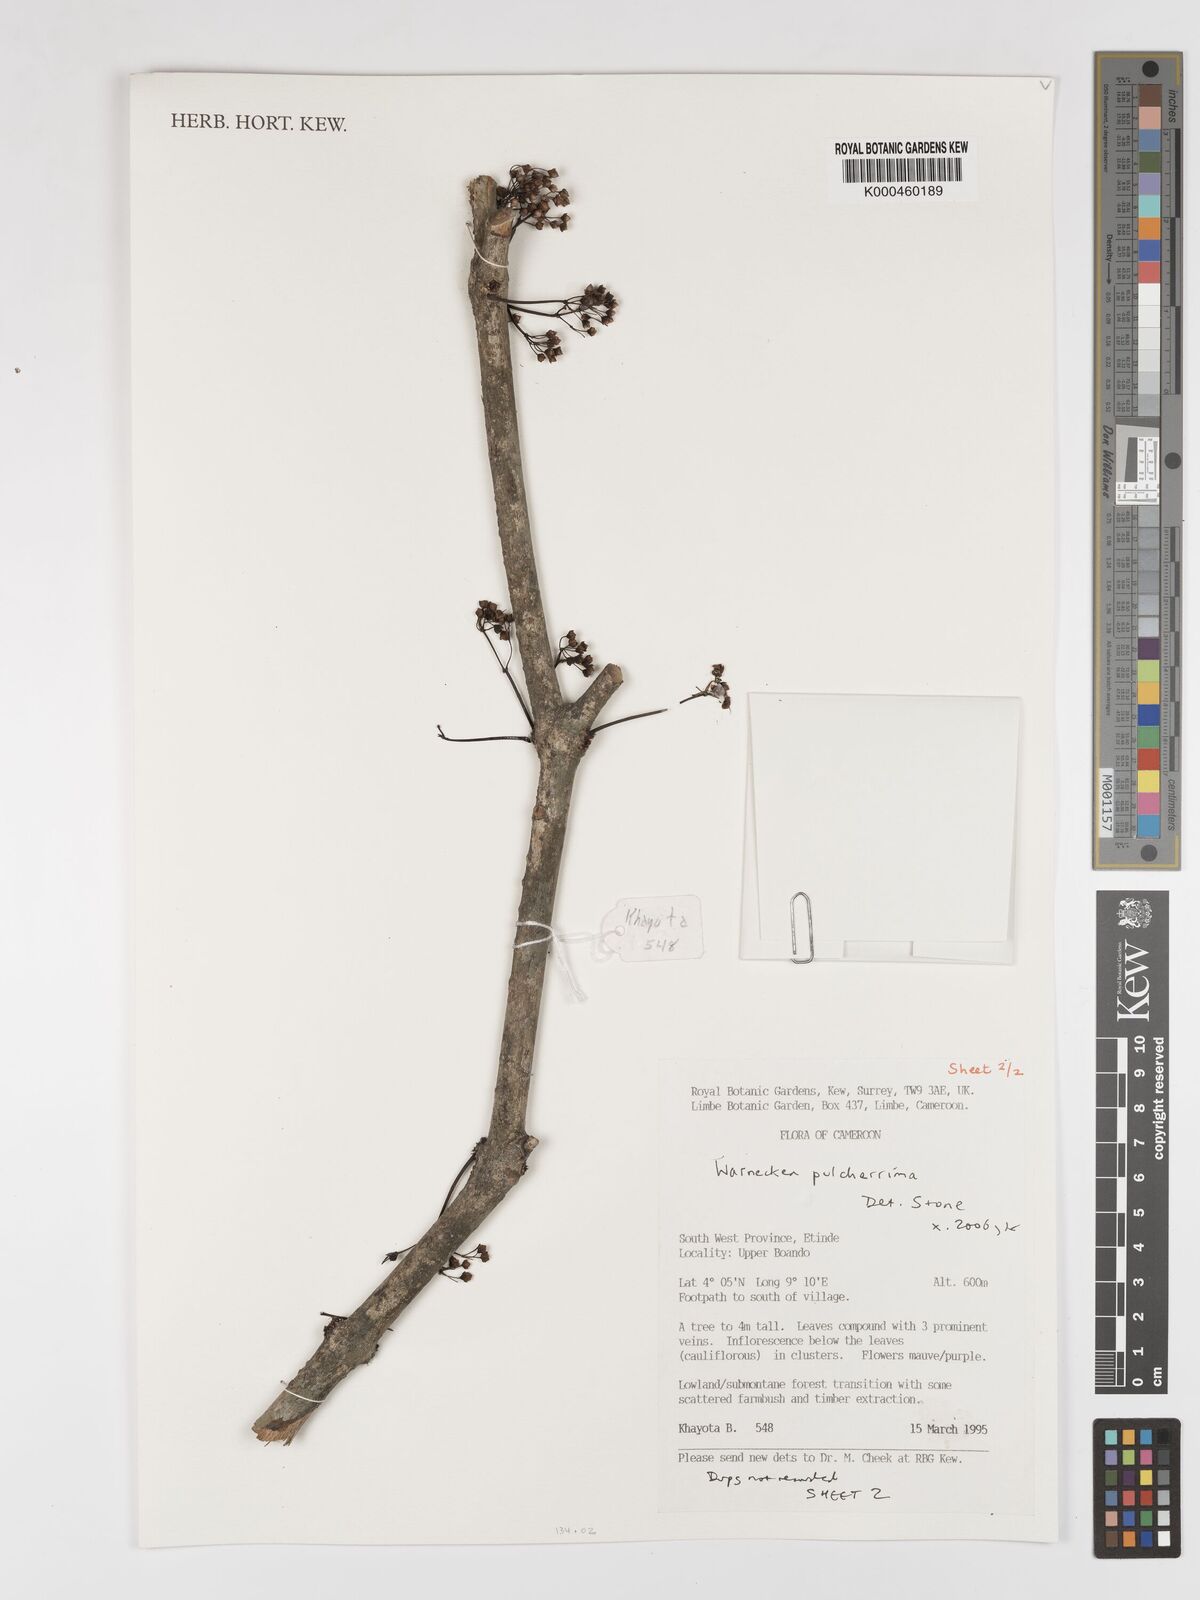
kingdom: Plantae
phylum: Tracheophyta
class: Magnoliopsida
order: Myrtales
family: Melastomataceae
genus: Warneckea
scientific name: Warneckea
